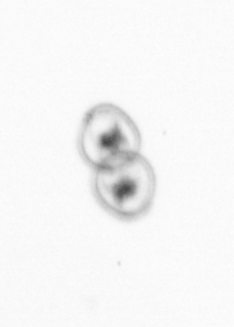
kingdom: Chromista
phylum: Myzozoa
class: Dinophyceae
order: Noctilucales
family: Noctilucaceae
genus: Noctiluca
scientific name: Noctiluca scintillans
